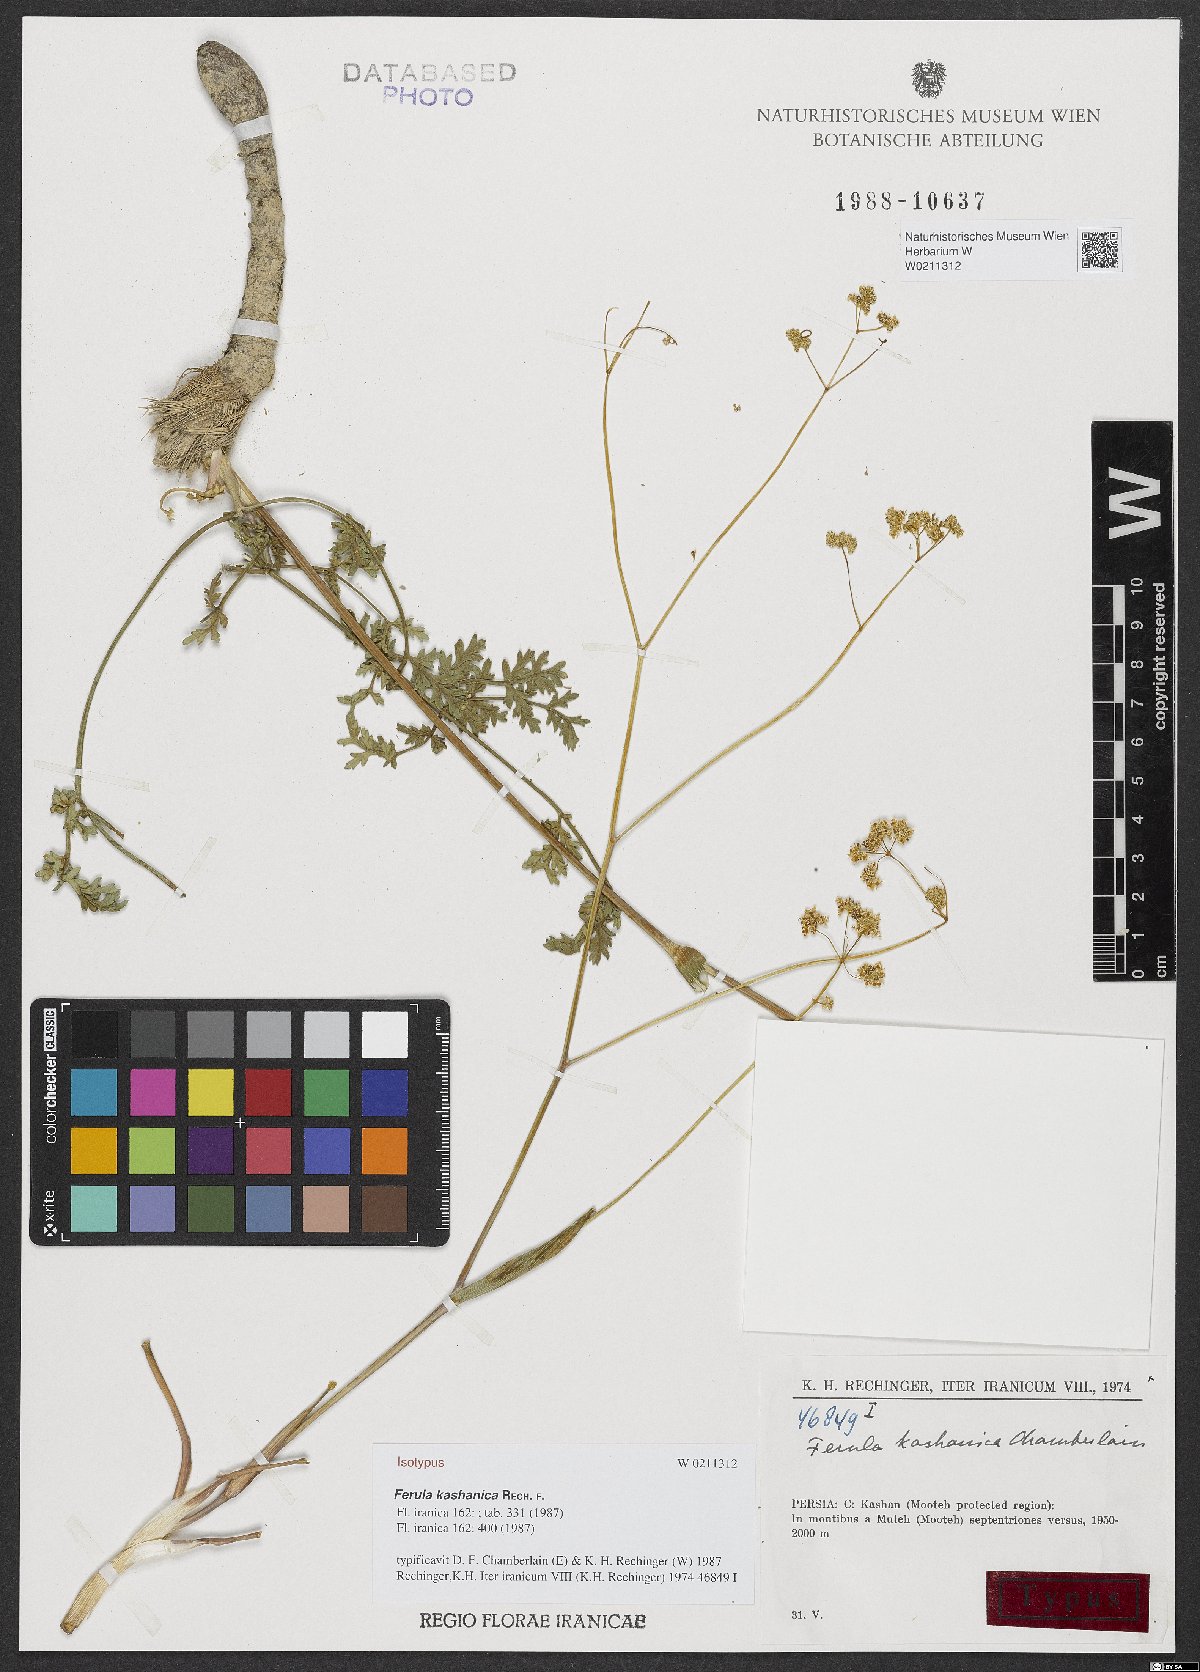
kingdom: Plantae
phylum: Tracheophyta
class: Magnoliopsida
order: Apiales
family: Apiaceae
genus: Ferula
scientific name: Ferula kashanica
